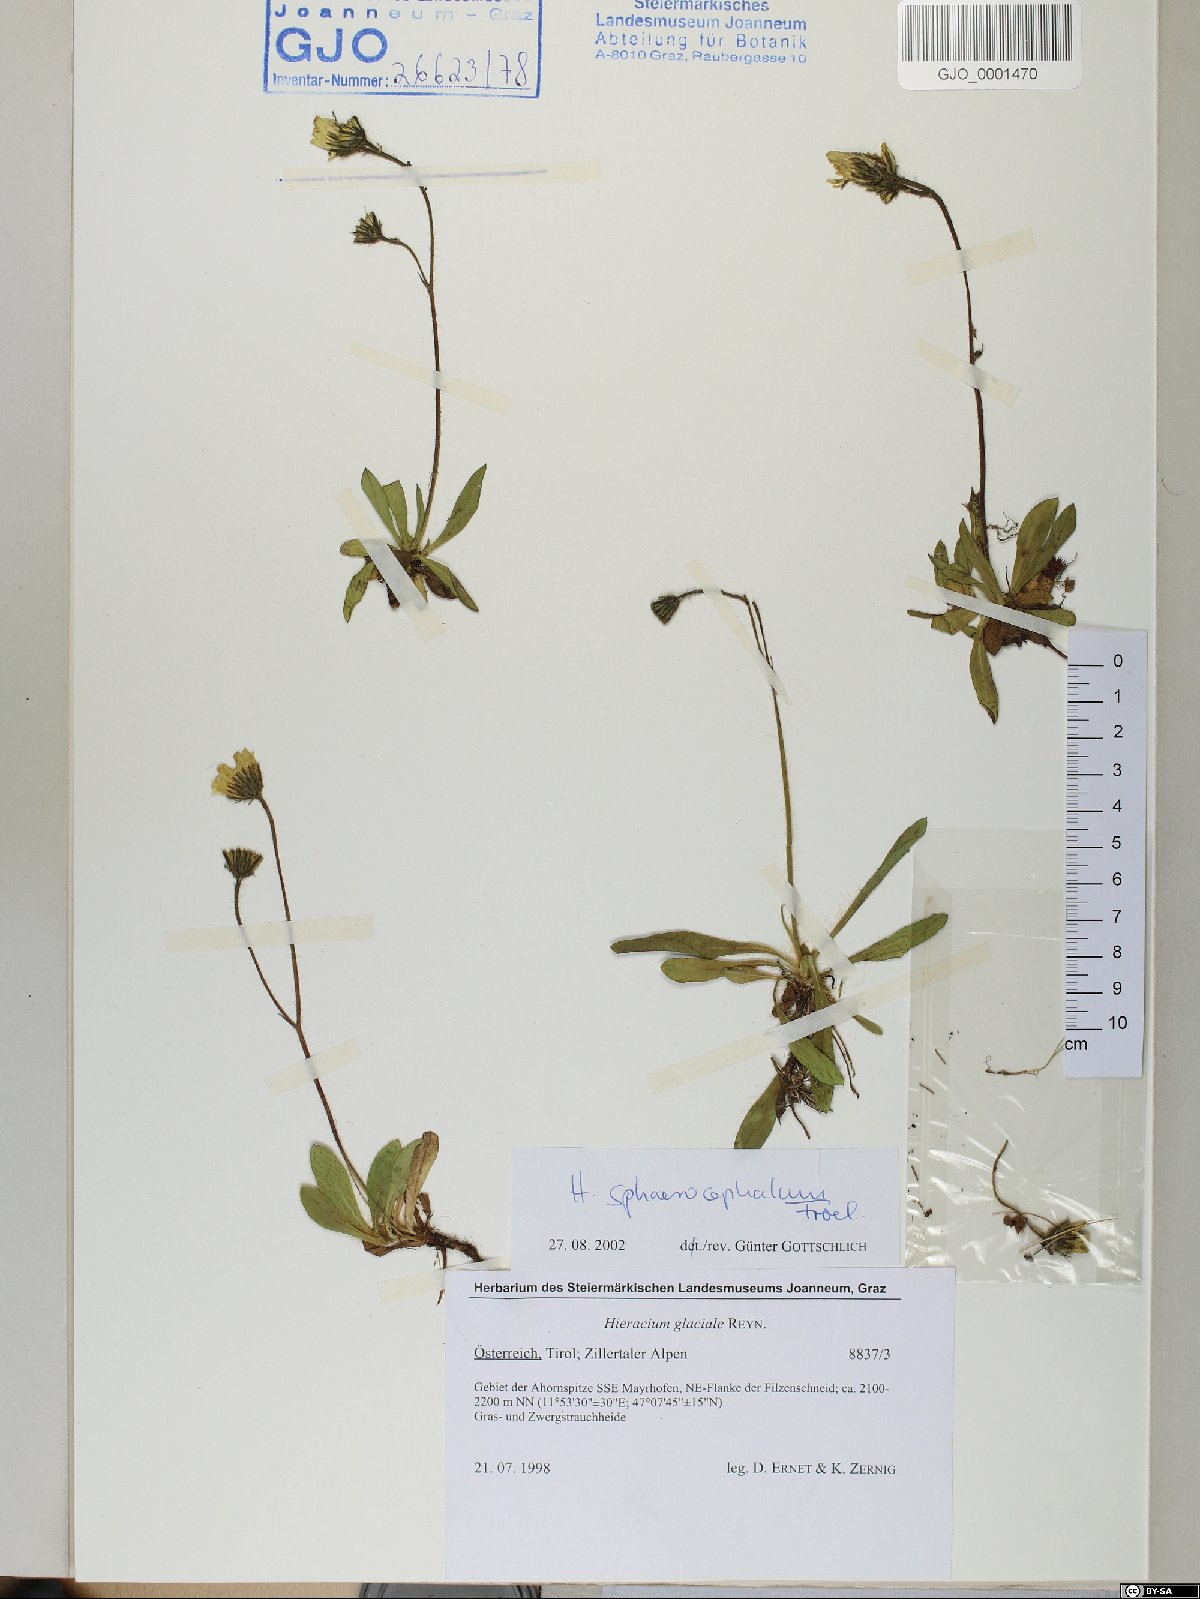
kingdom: Plantae
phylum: Tracheophyta
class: Magnoliopsida
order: Asterales
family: Asteraceae
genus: Pilosella
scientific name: Pilosella sphaerocephala
